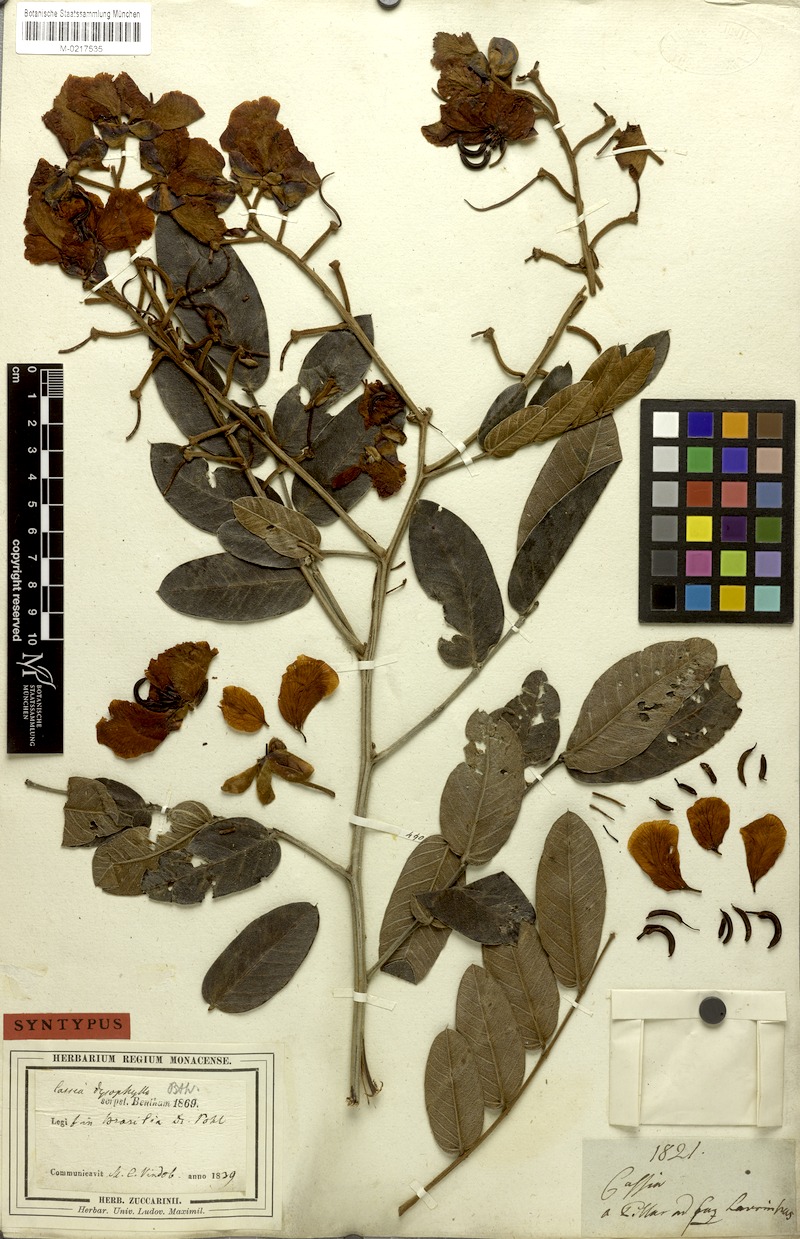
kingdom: Plantae
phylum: Tracheophyta
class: Magnoliopsida
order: Fabales
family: Fabaceae
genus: Senna
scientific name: Senna velutina
